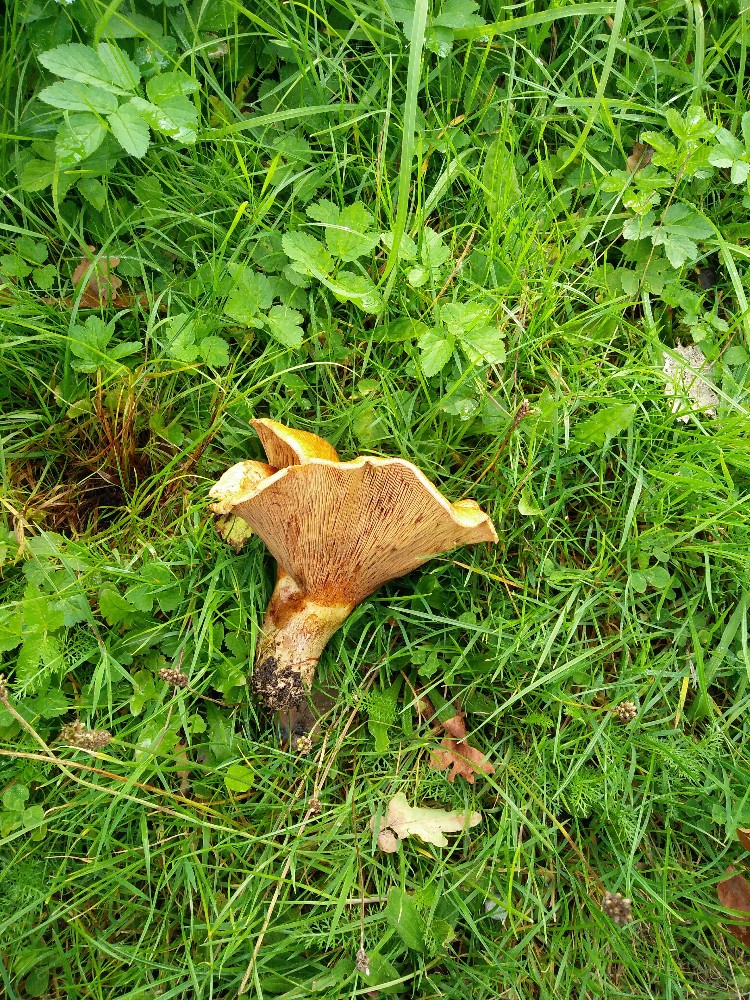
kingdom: Fungi
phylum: Basidiomycota
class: Agaricomycetes
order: Boletales
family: Paxillaceae
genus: Paxillus
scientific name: Paxillus
